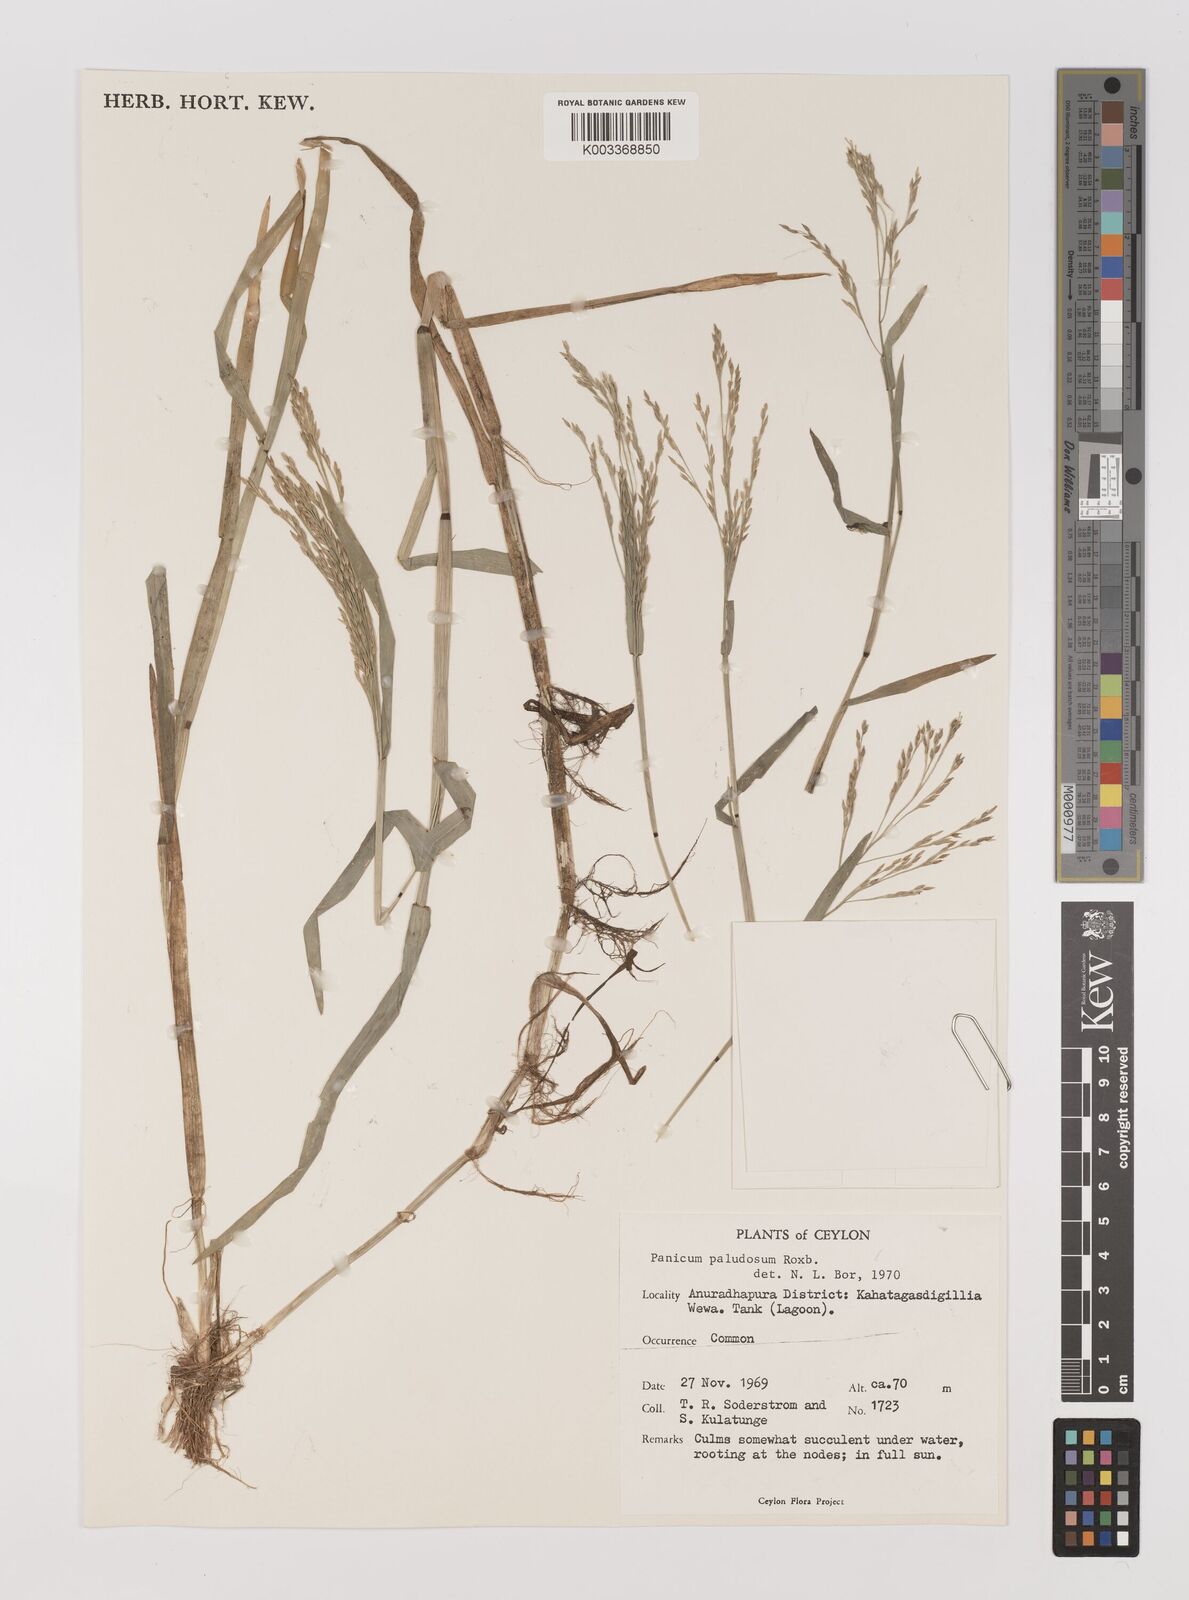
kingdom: Plantae
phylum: Tracheophyta
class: Liliopsida
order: Poales
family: Poaceae
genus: Louisiella
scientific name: Louisiella paludosa
